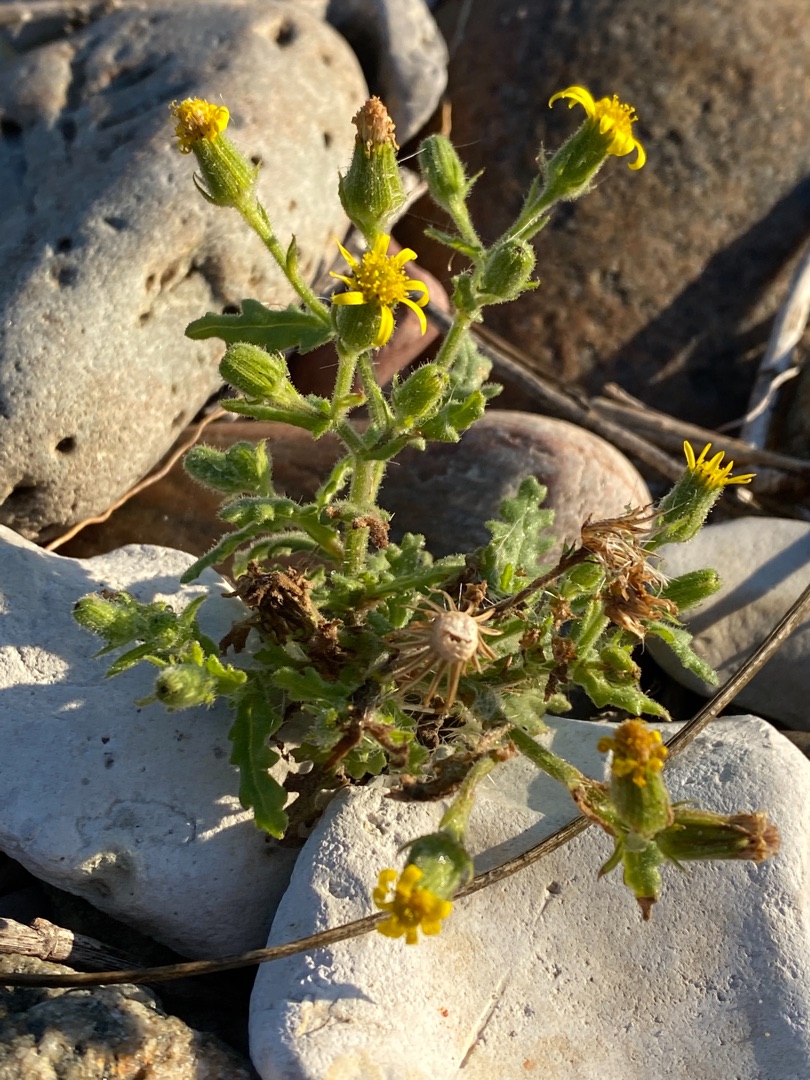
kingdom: Plantae
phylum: Tracheophyta
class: Magnoliopsida
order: Asterales
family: Asteraceae
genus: Senecio
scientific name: Senecio viscosus
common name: Klæbrig brandbæger
